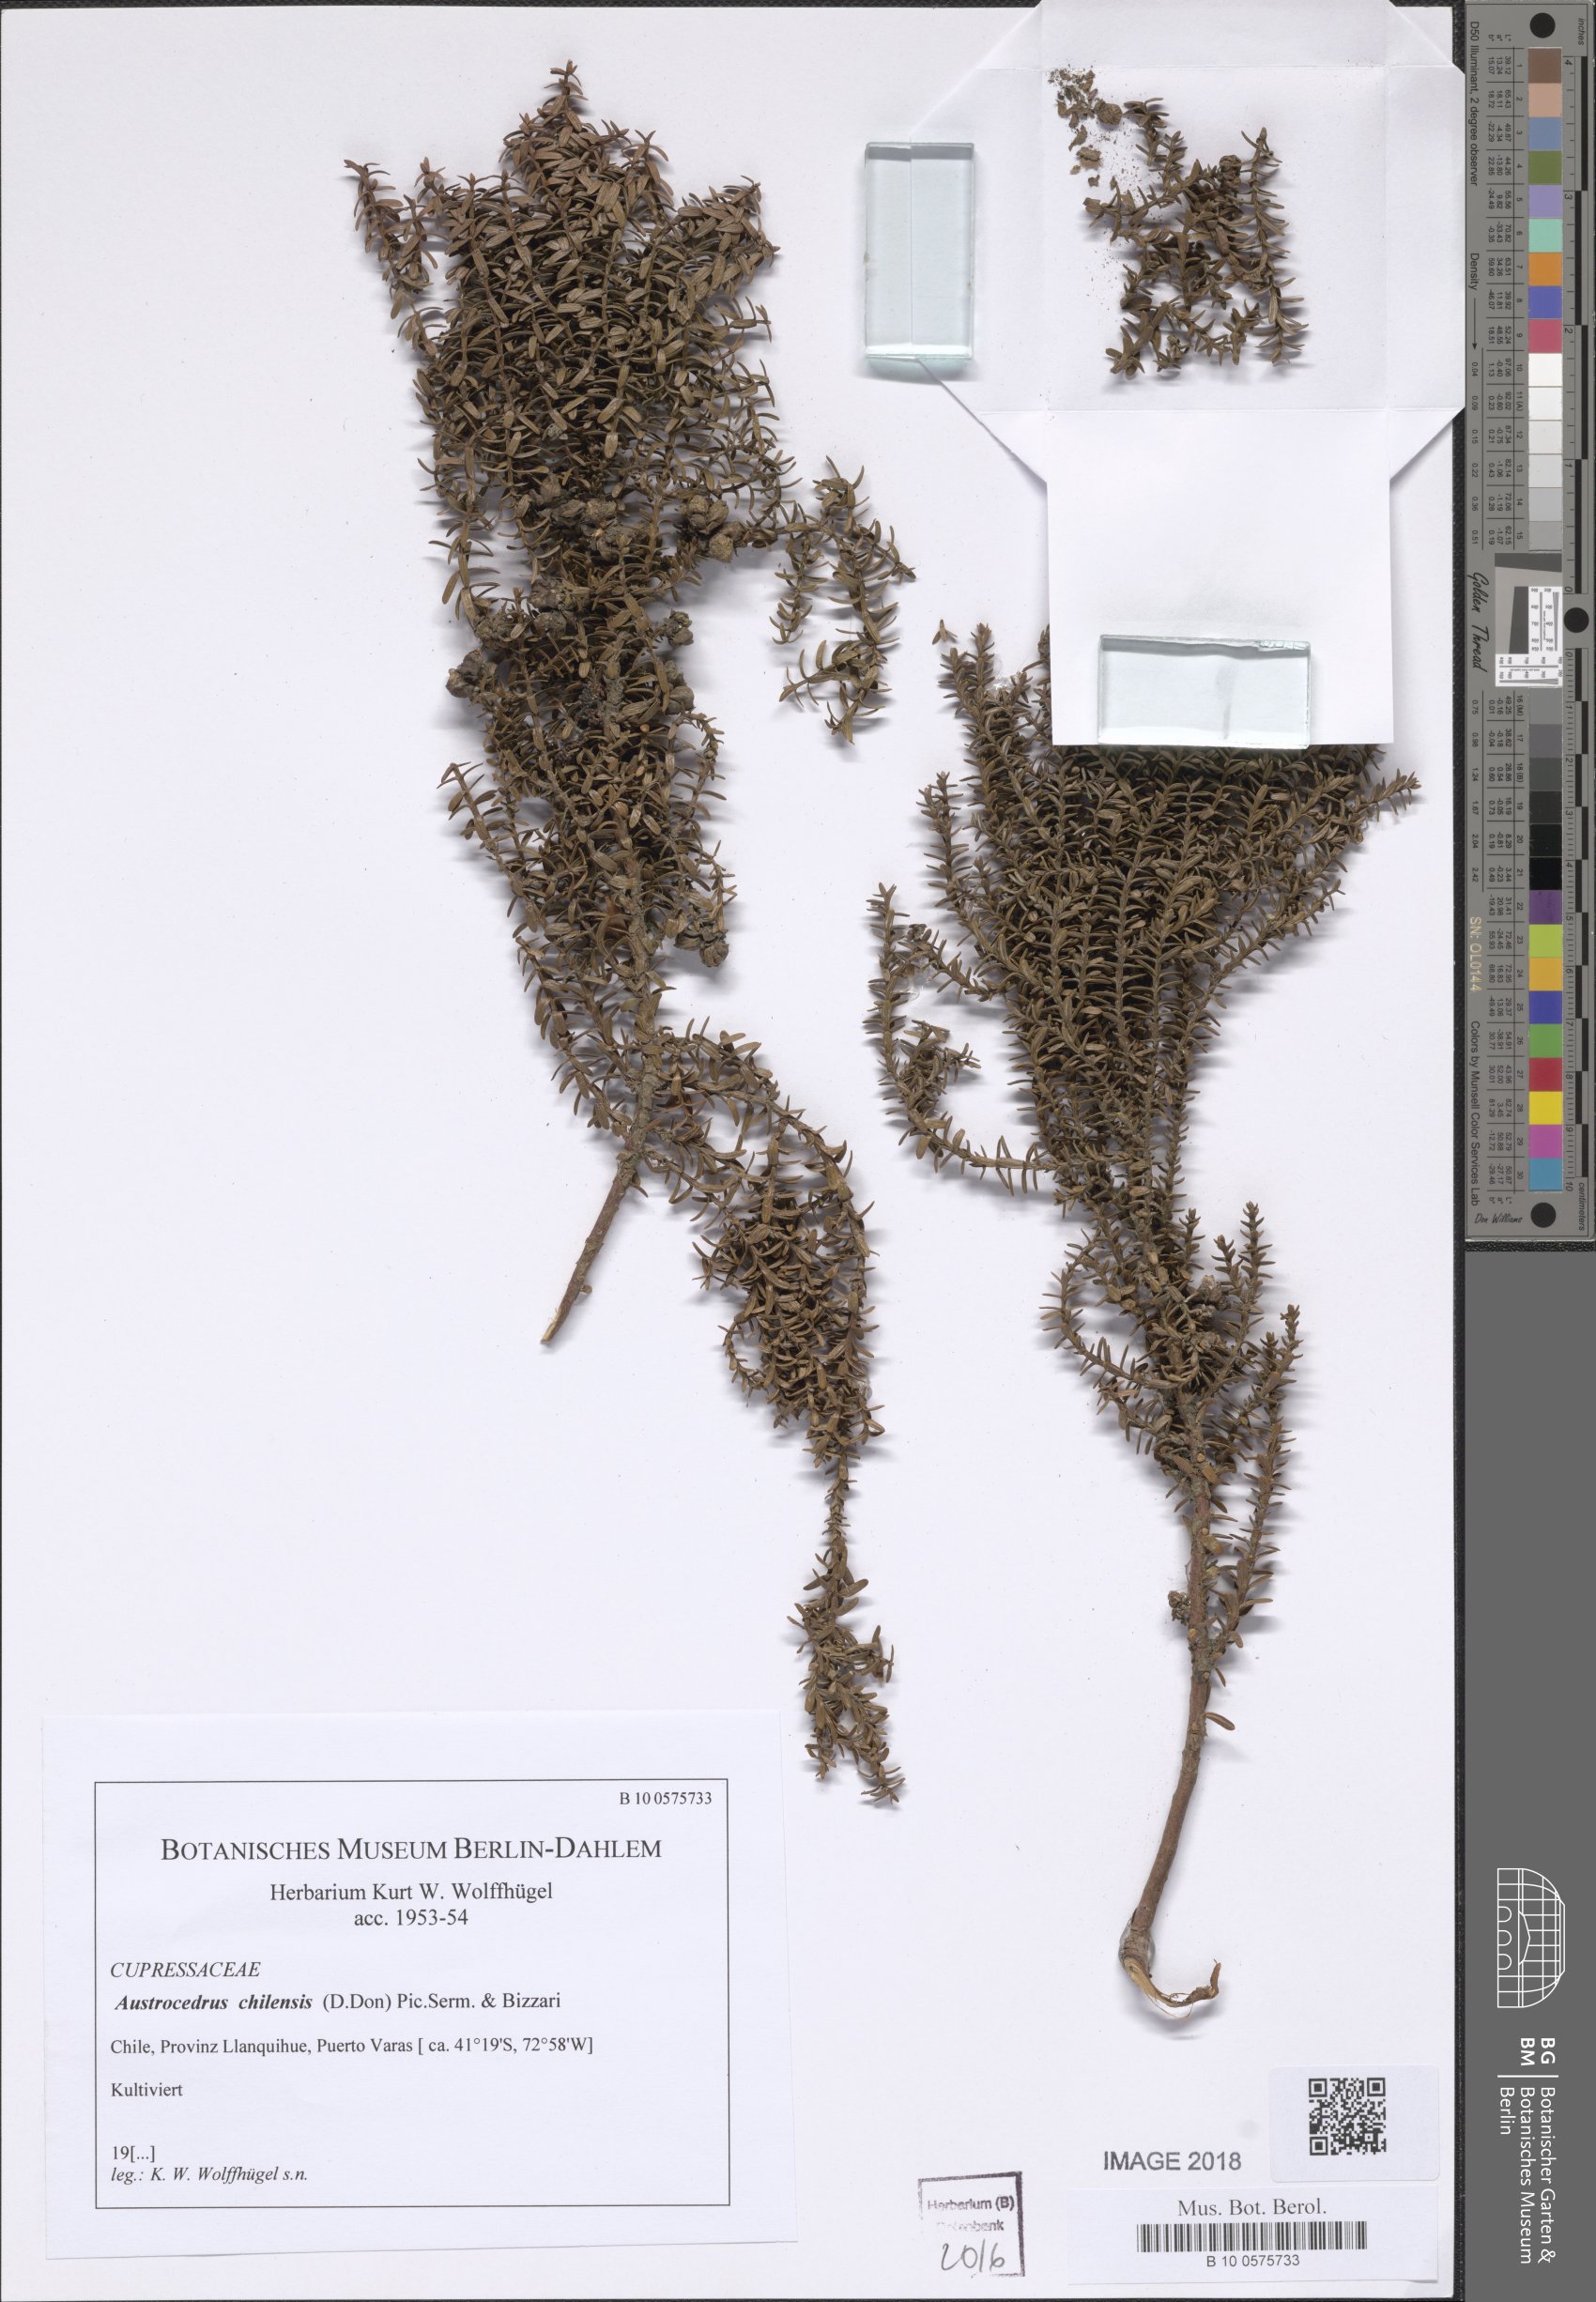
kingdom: Plantae
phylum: Tracheophyta
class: Pinopsida
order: Pinales
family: Cupressaceae
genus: Austrocedrus
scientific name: Austrocedrus chilensis
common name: Chilean incense-cedar
